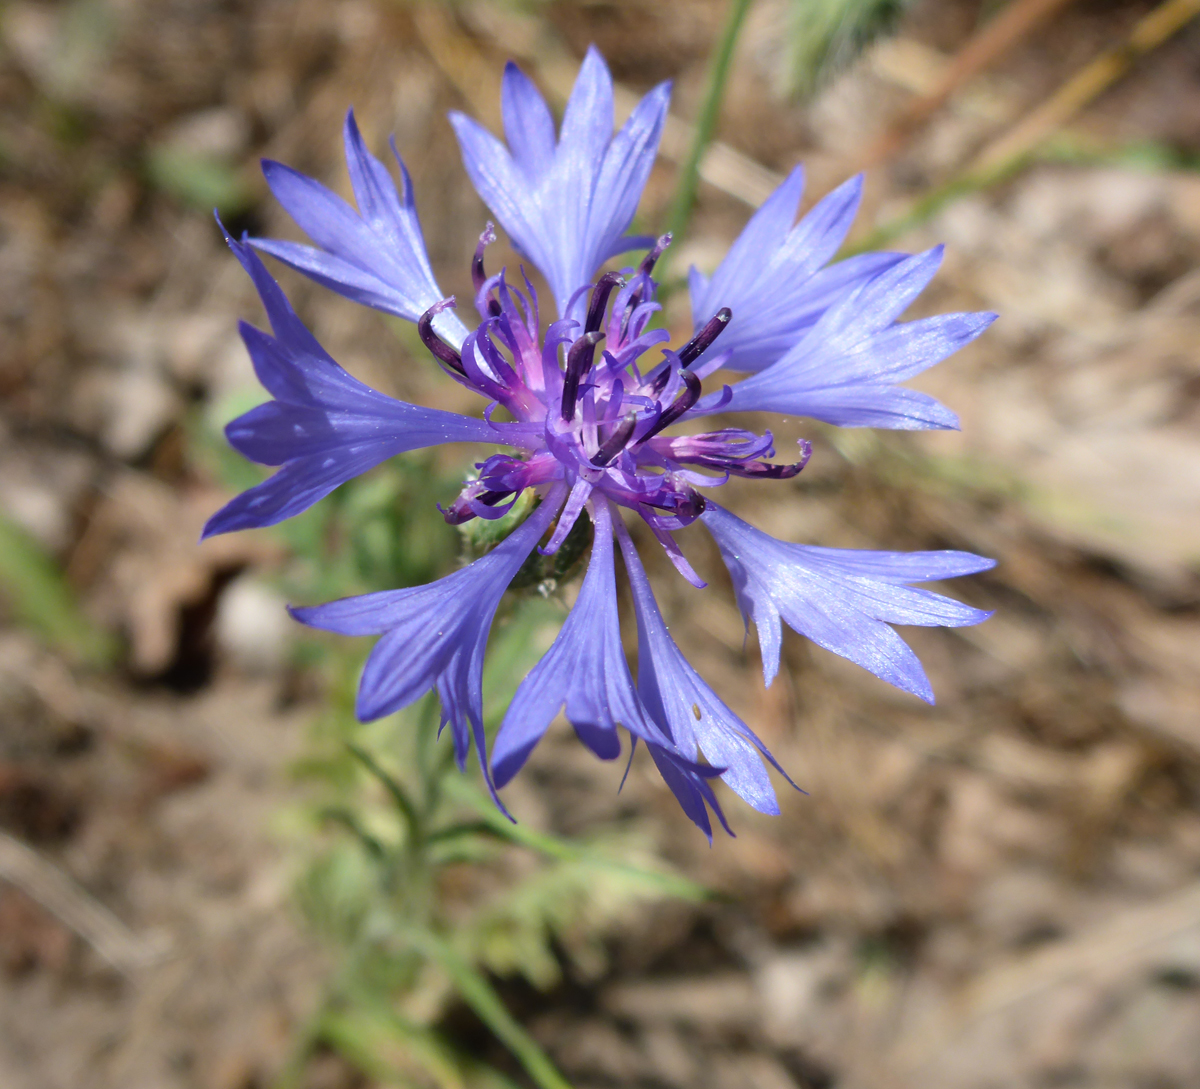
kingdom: Plantae
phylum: Tracheophyta
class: Magnoliopsida
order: Asterales
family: Asteraceae
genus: Centaurea
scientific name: Centaurea cyanus
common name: Cornflower
